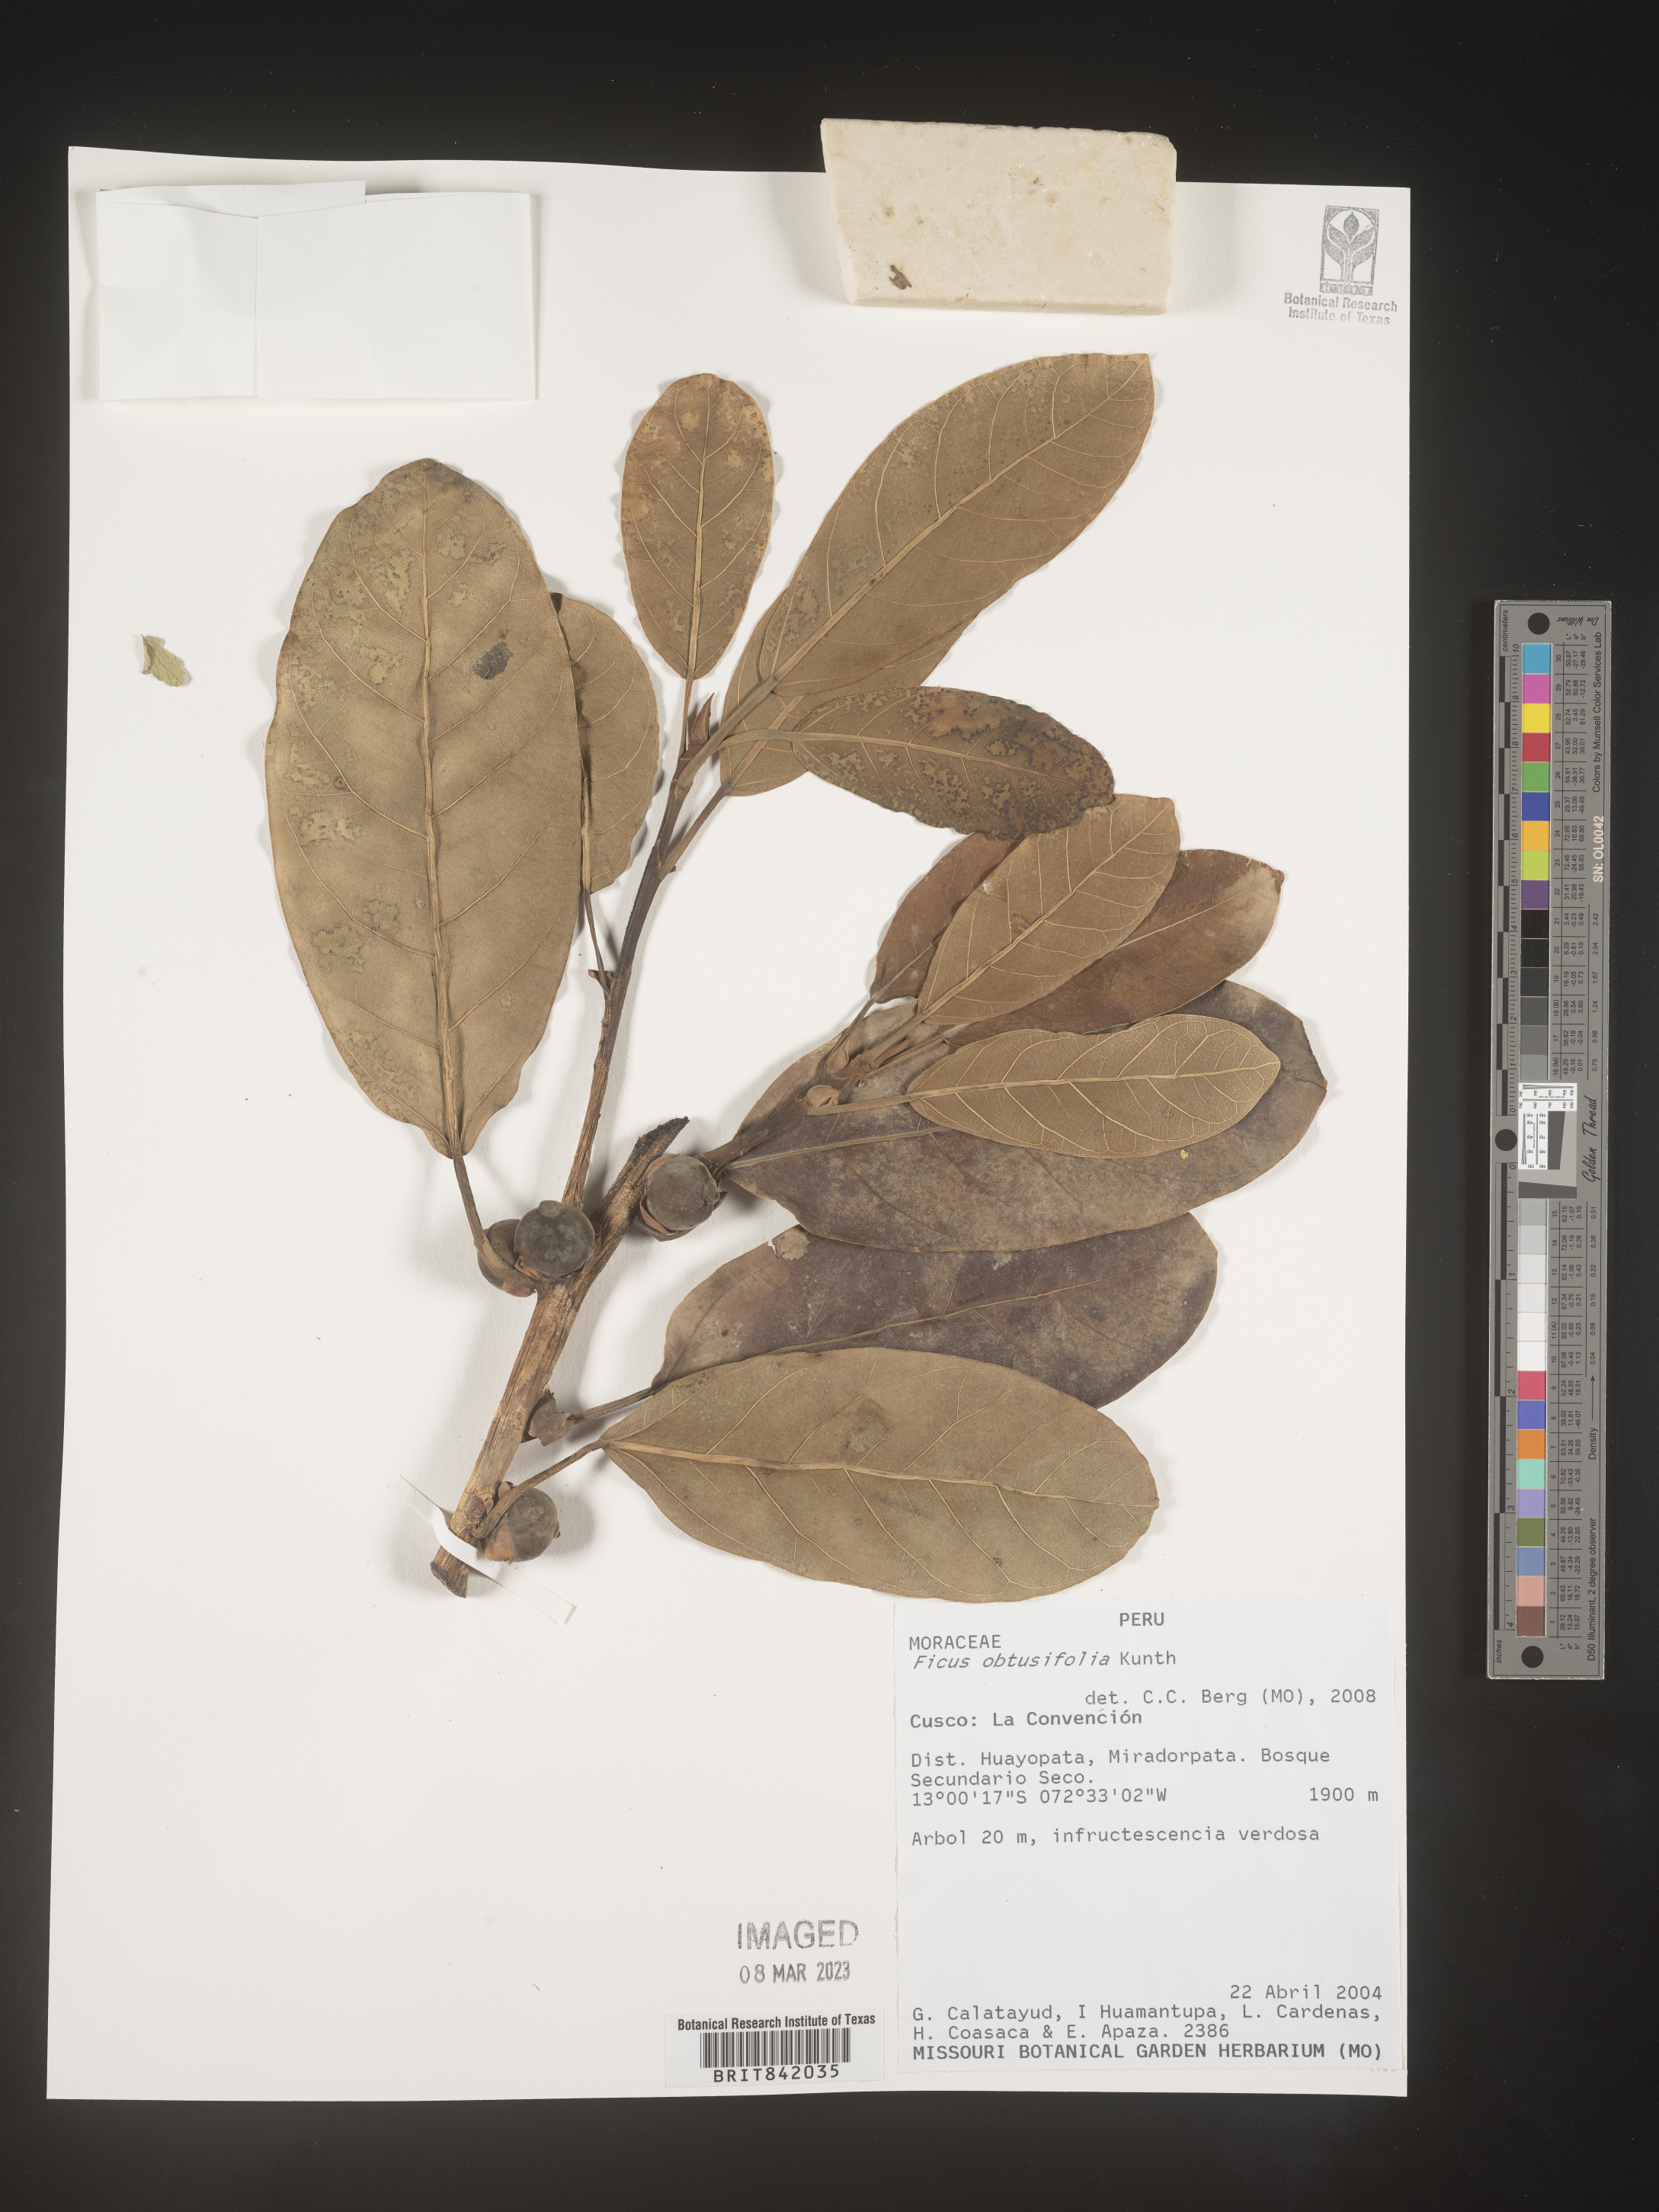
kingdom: Plantae
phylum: Tracheophyta
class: Magnoliopsida
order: Rosales
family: Moraceae
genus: Ficus
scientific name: Ficus obtusifolia
